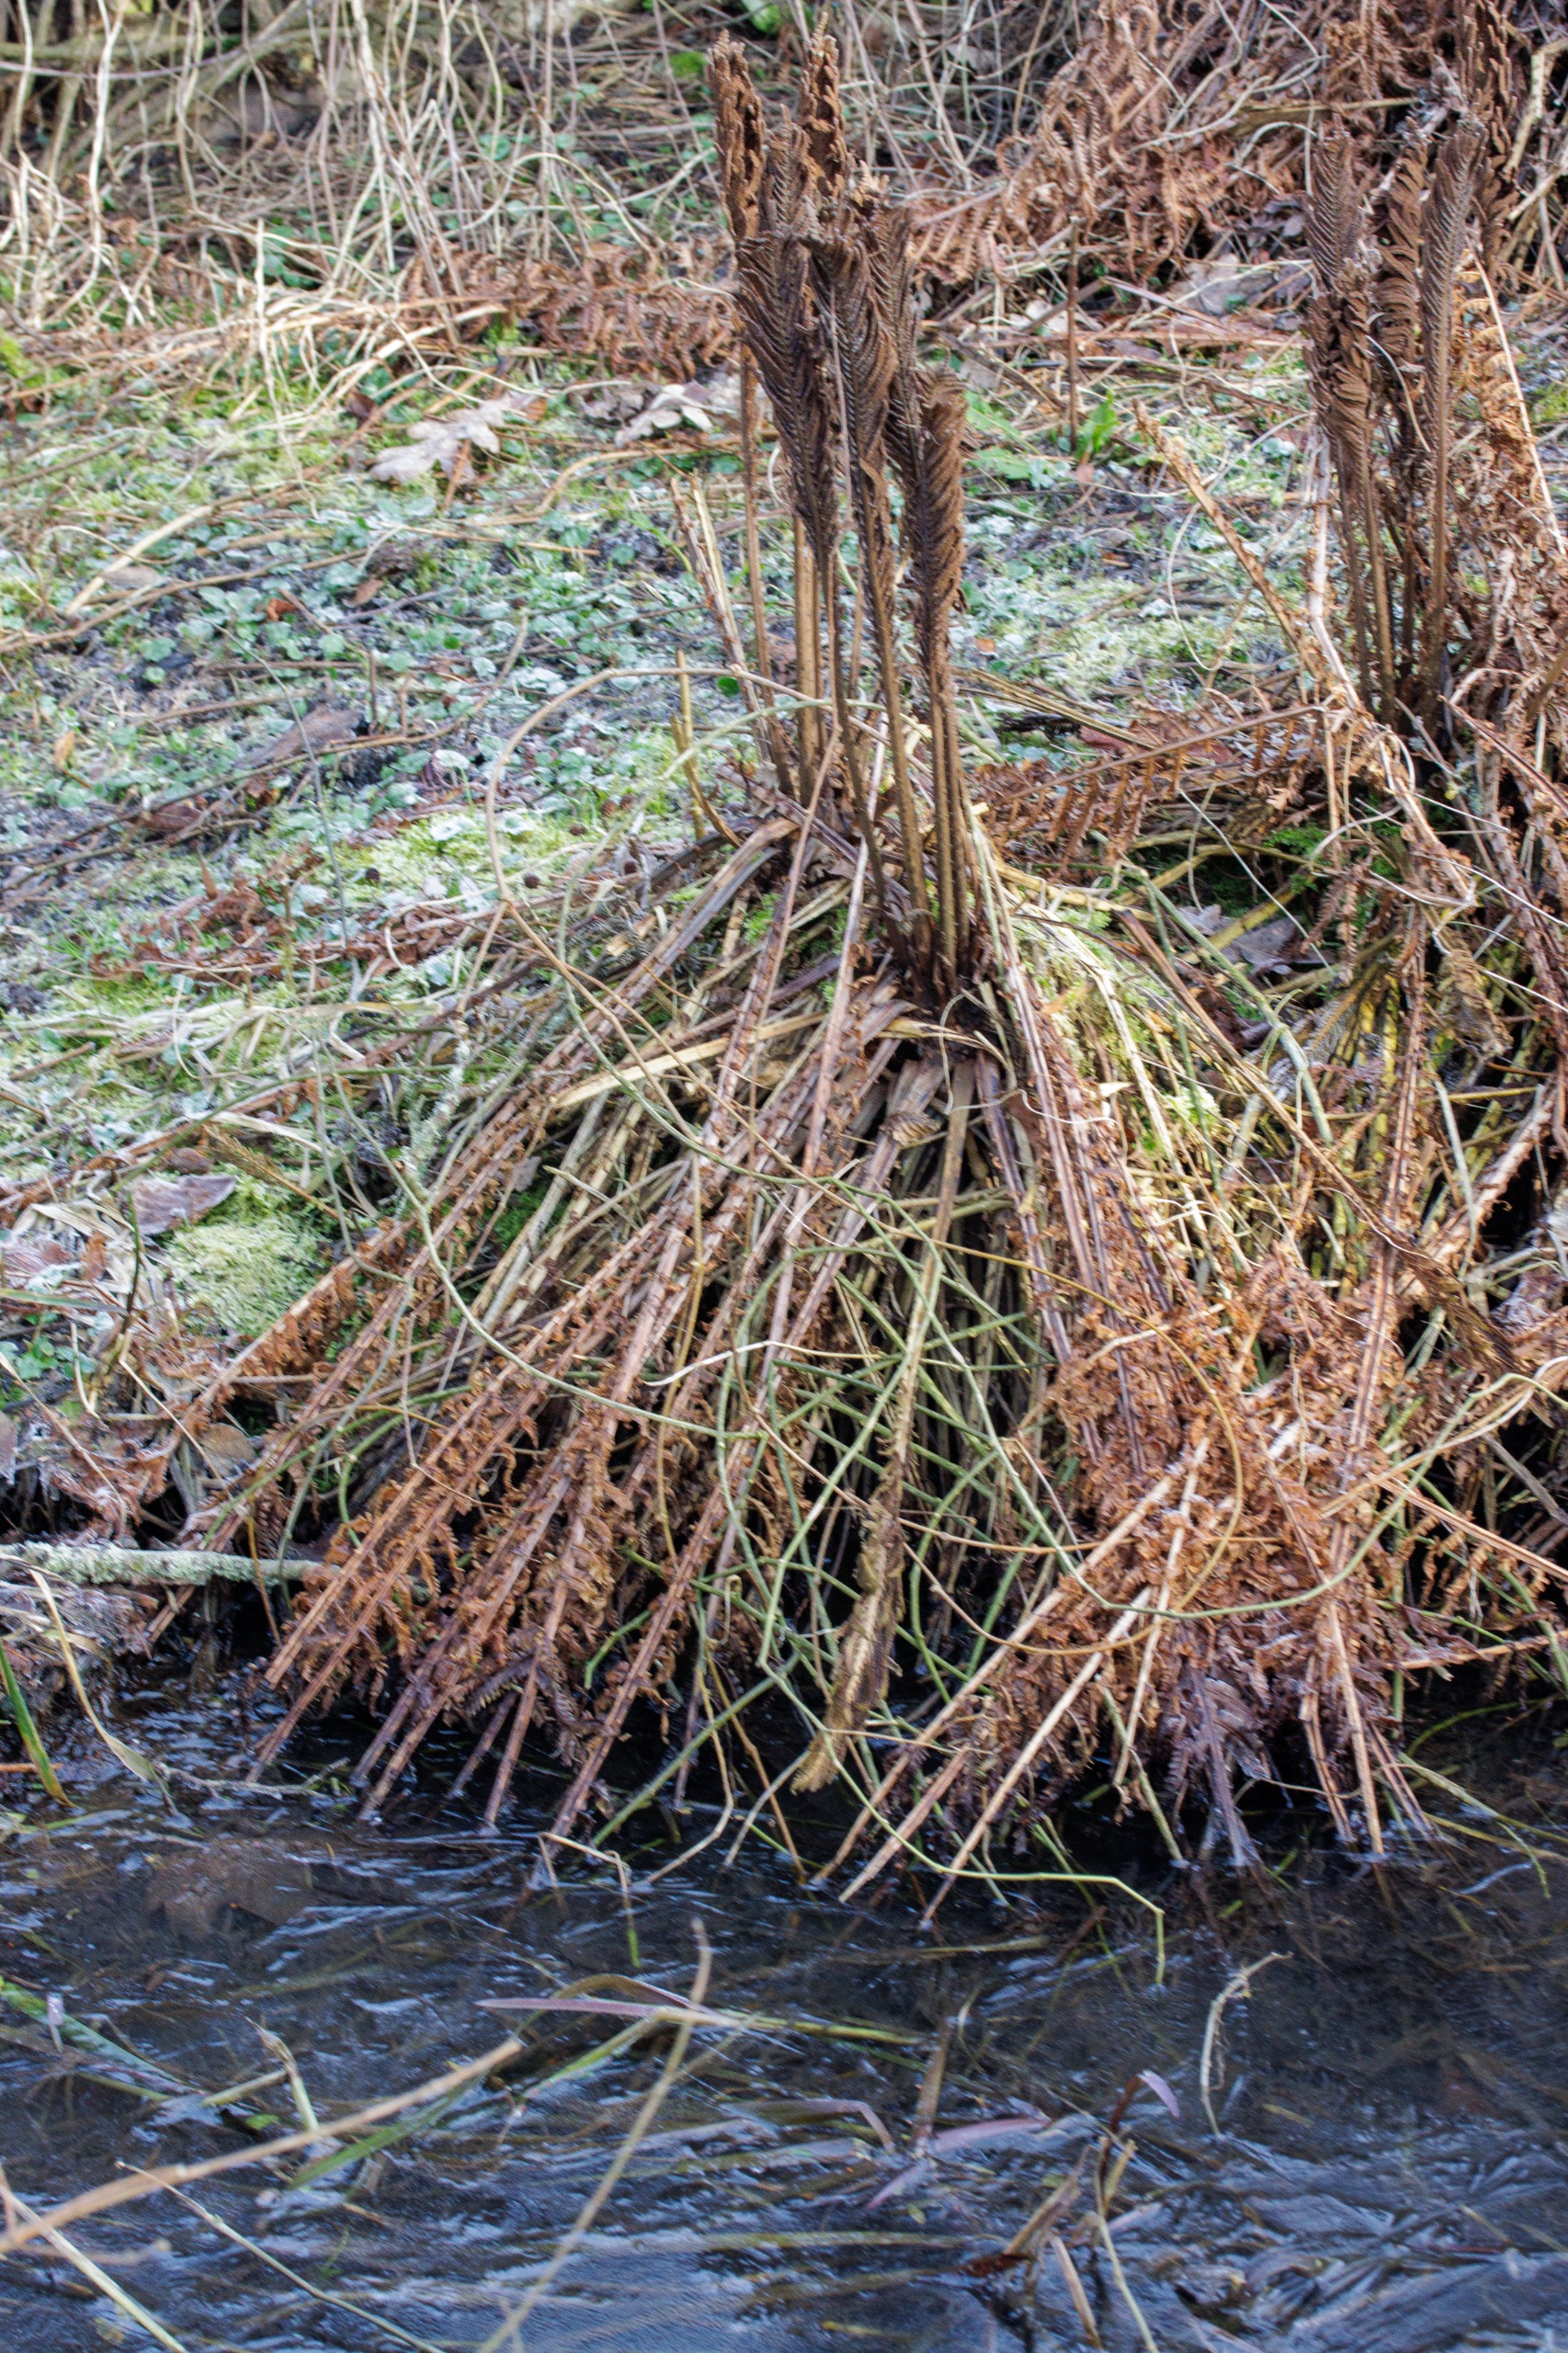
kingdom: Plantae
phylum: Tracheophyta
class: Polypodiopsida
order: Polypodiales
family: Onocleaceae
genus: Matteuccia
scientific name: Matteuccia struthiopteris
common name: Strudsvinge
